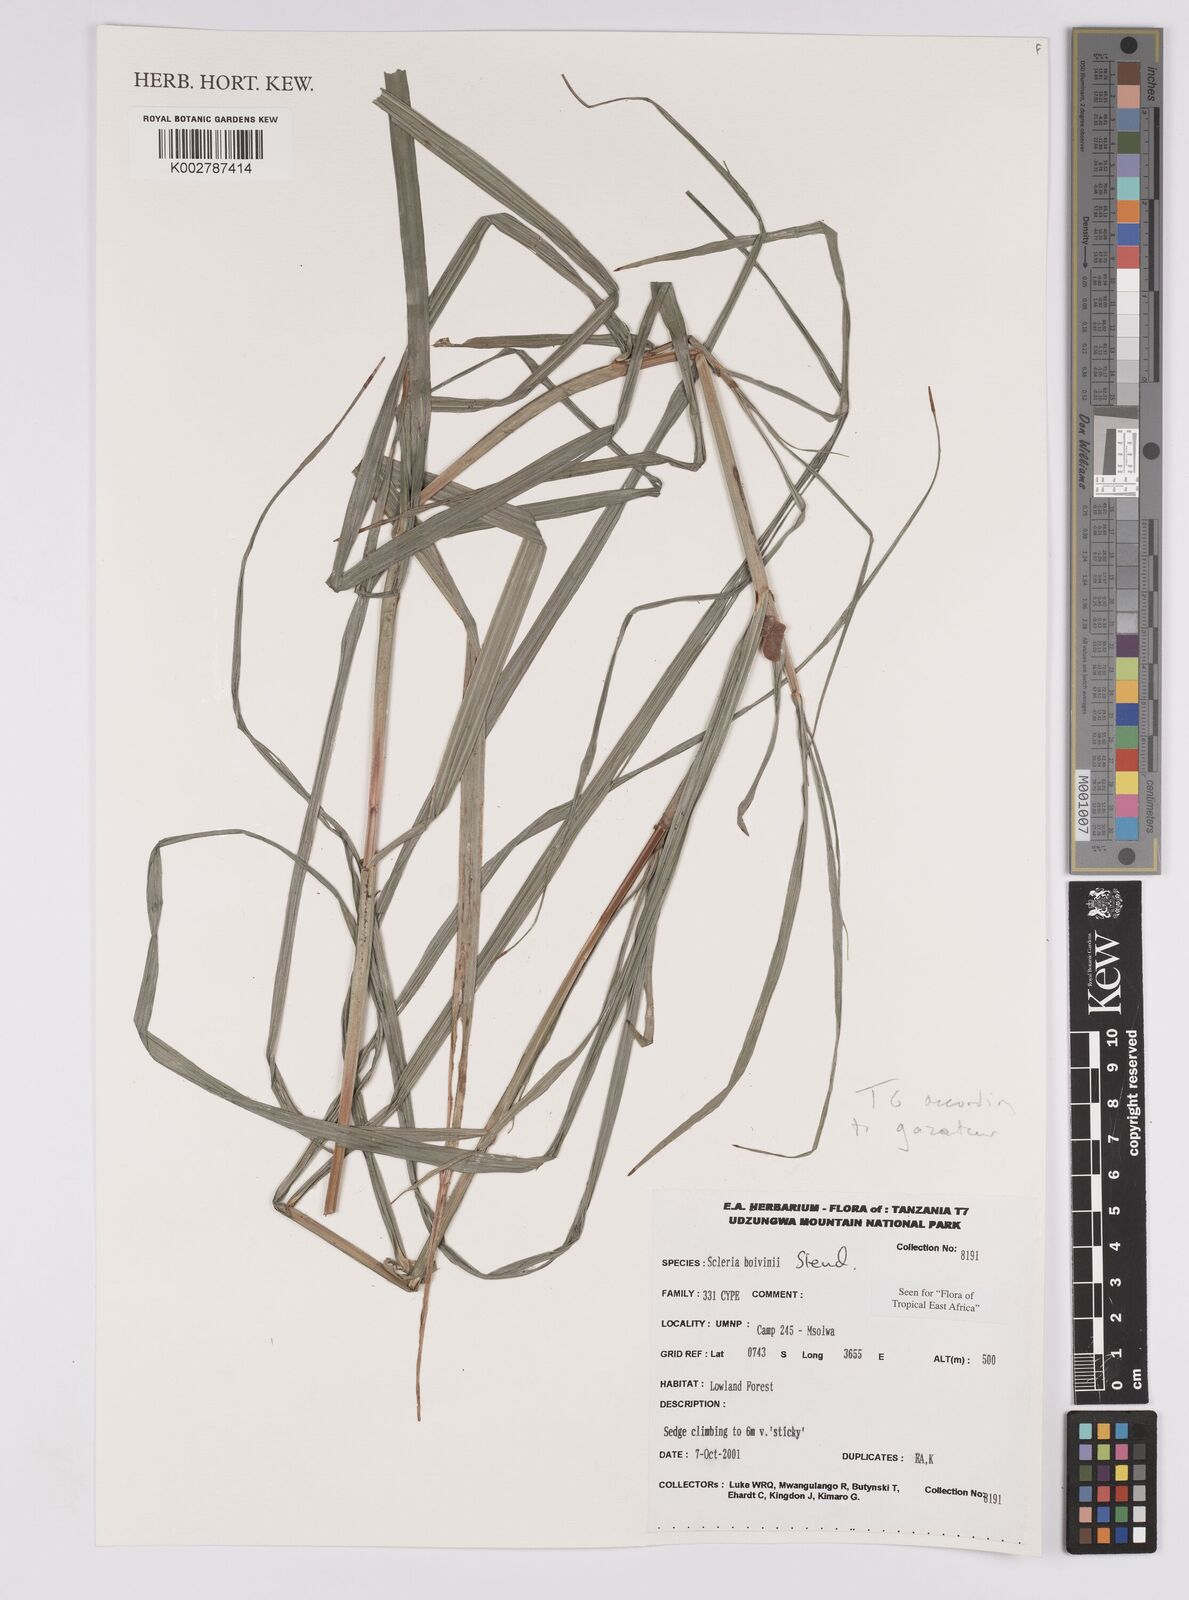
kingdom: Plantae
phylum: Tracheophyta
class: Liliopsida
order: Poales
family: Cyperaceae
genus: Scleria
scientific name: Scleria boivinii
